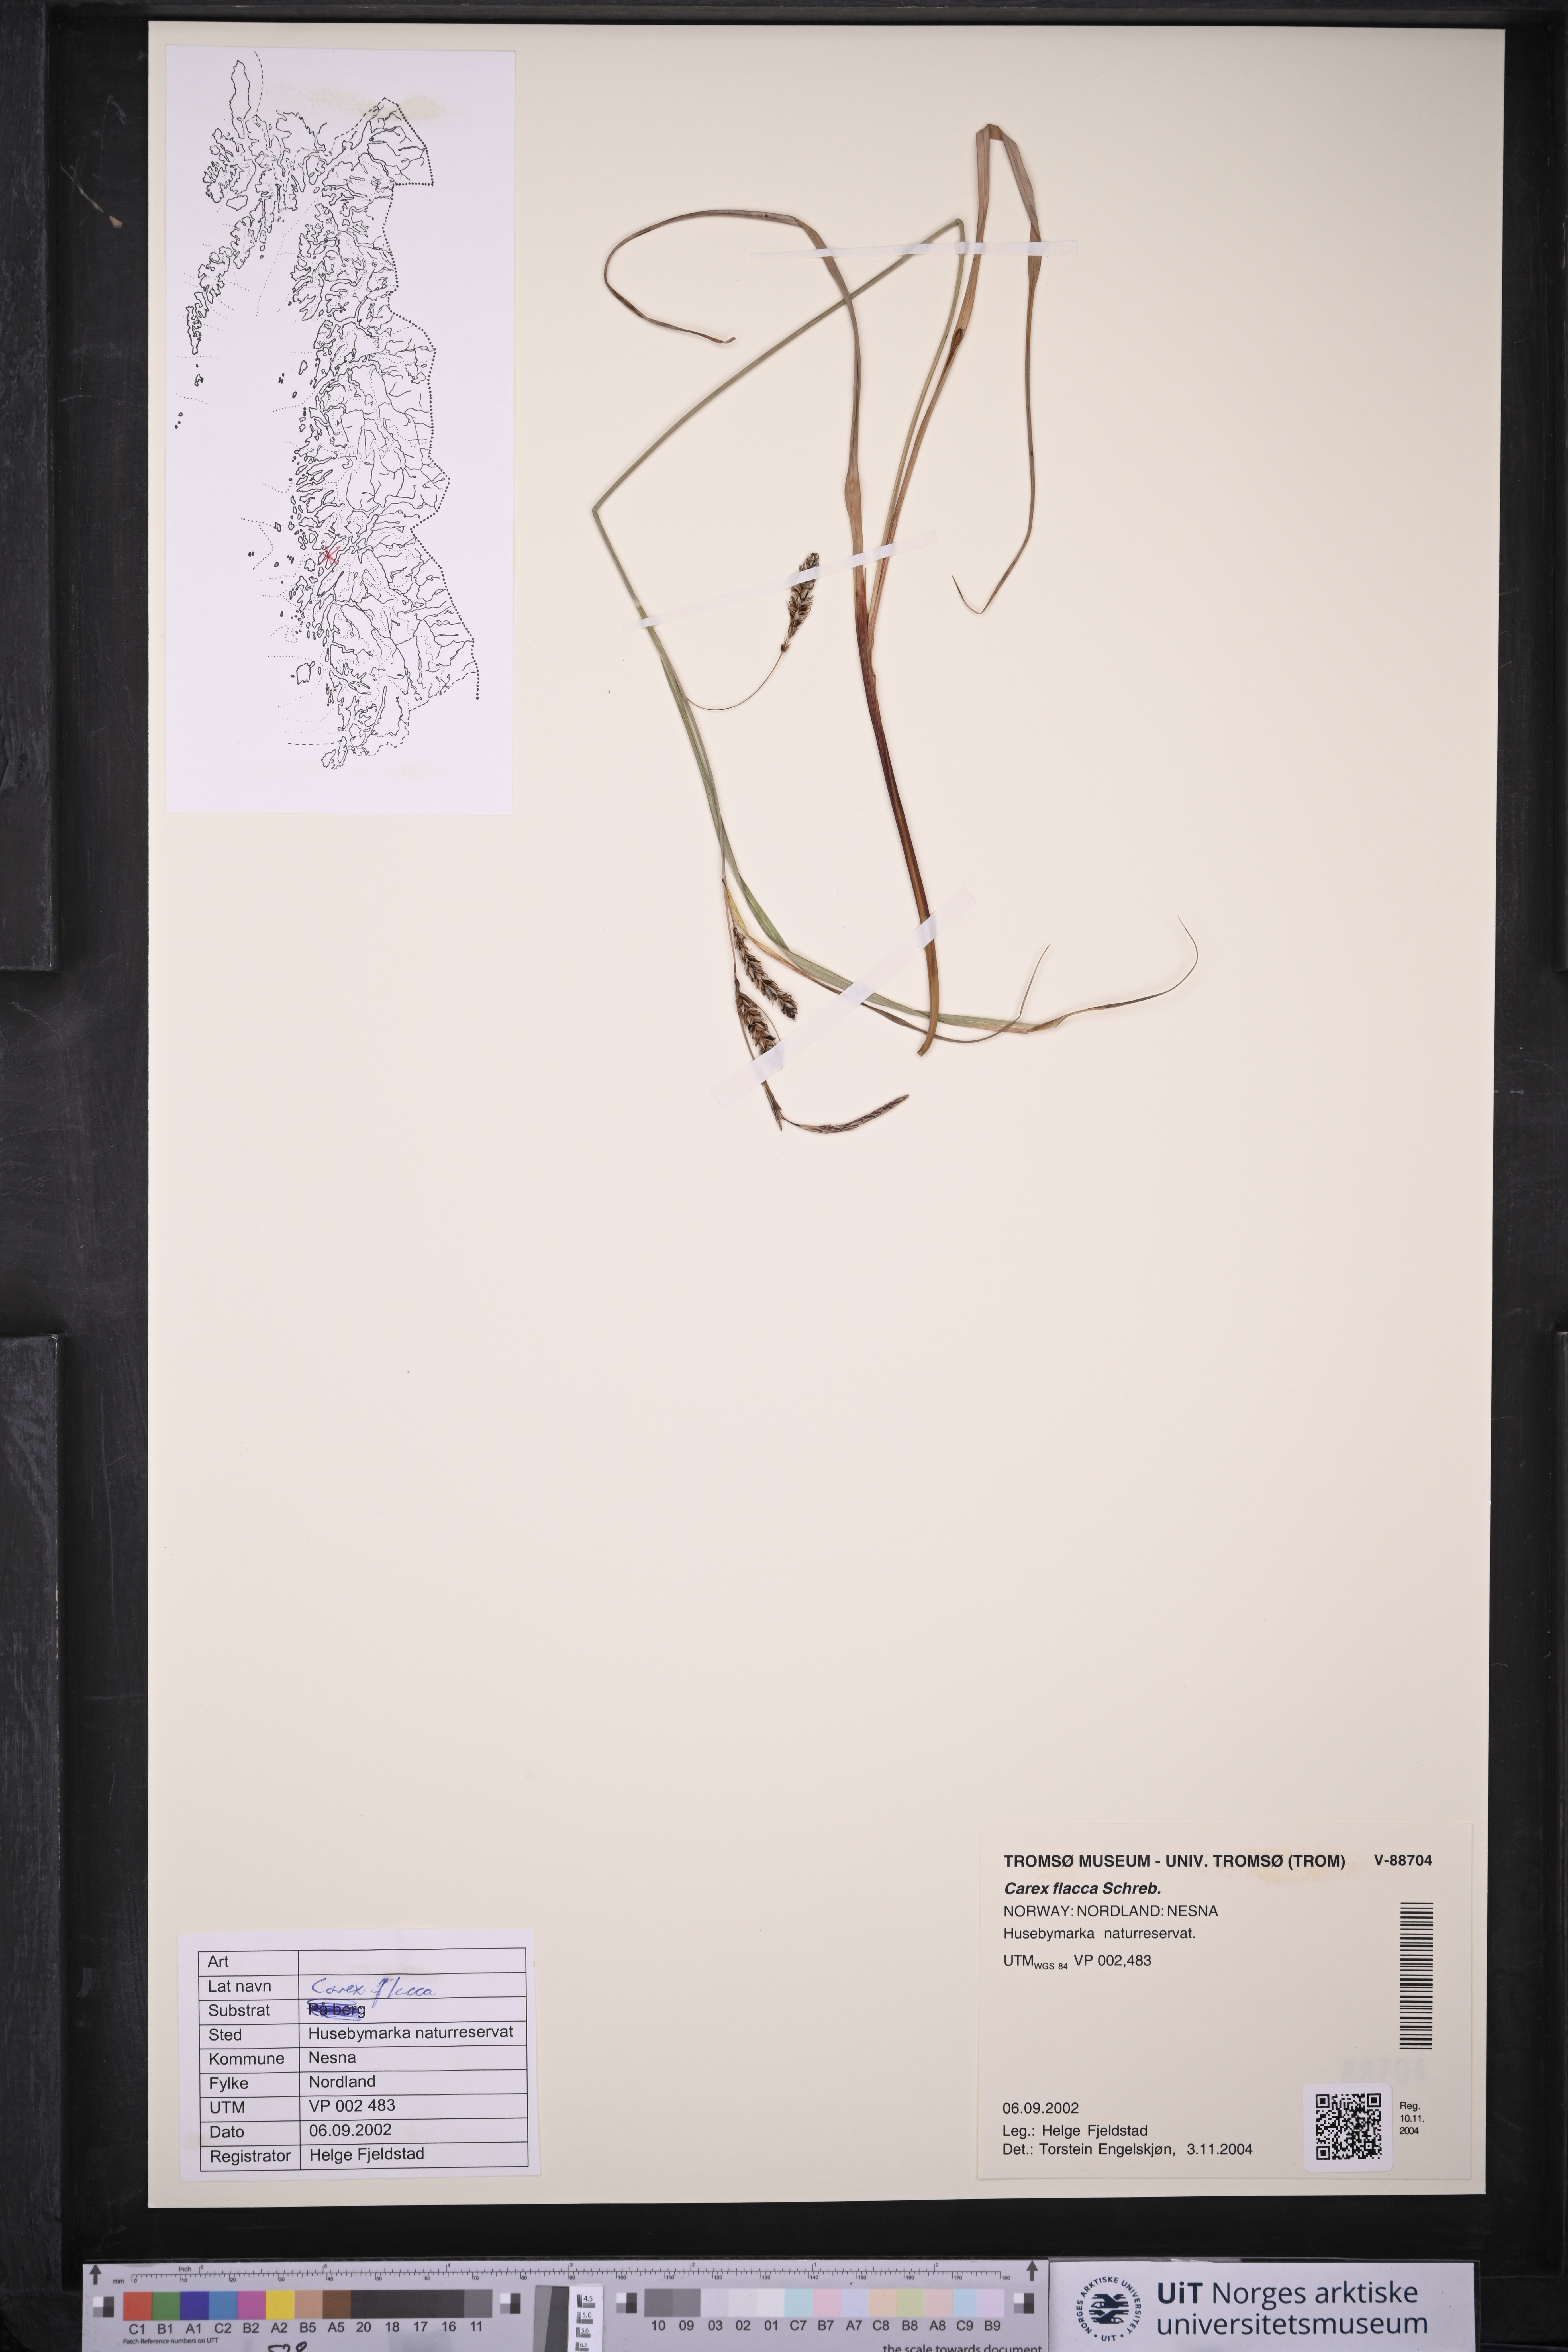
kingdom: Plantae
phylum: Tracheophyta
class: Liliopsida
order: Poales
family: Cyperaceae
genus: Carex
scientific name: Carex flacca
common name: Glaucous sedge
